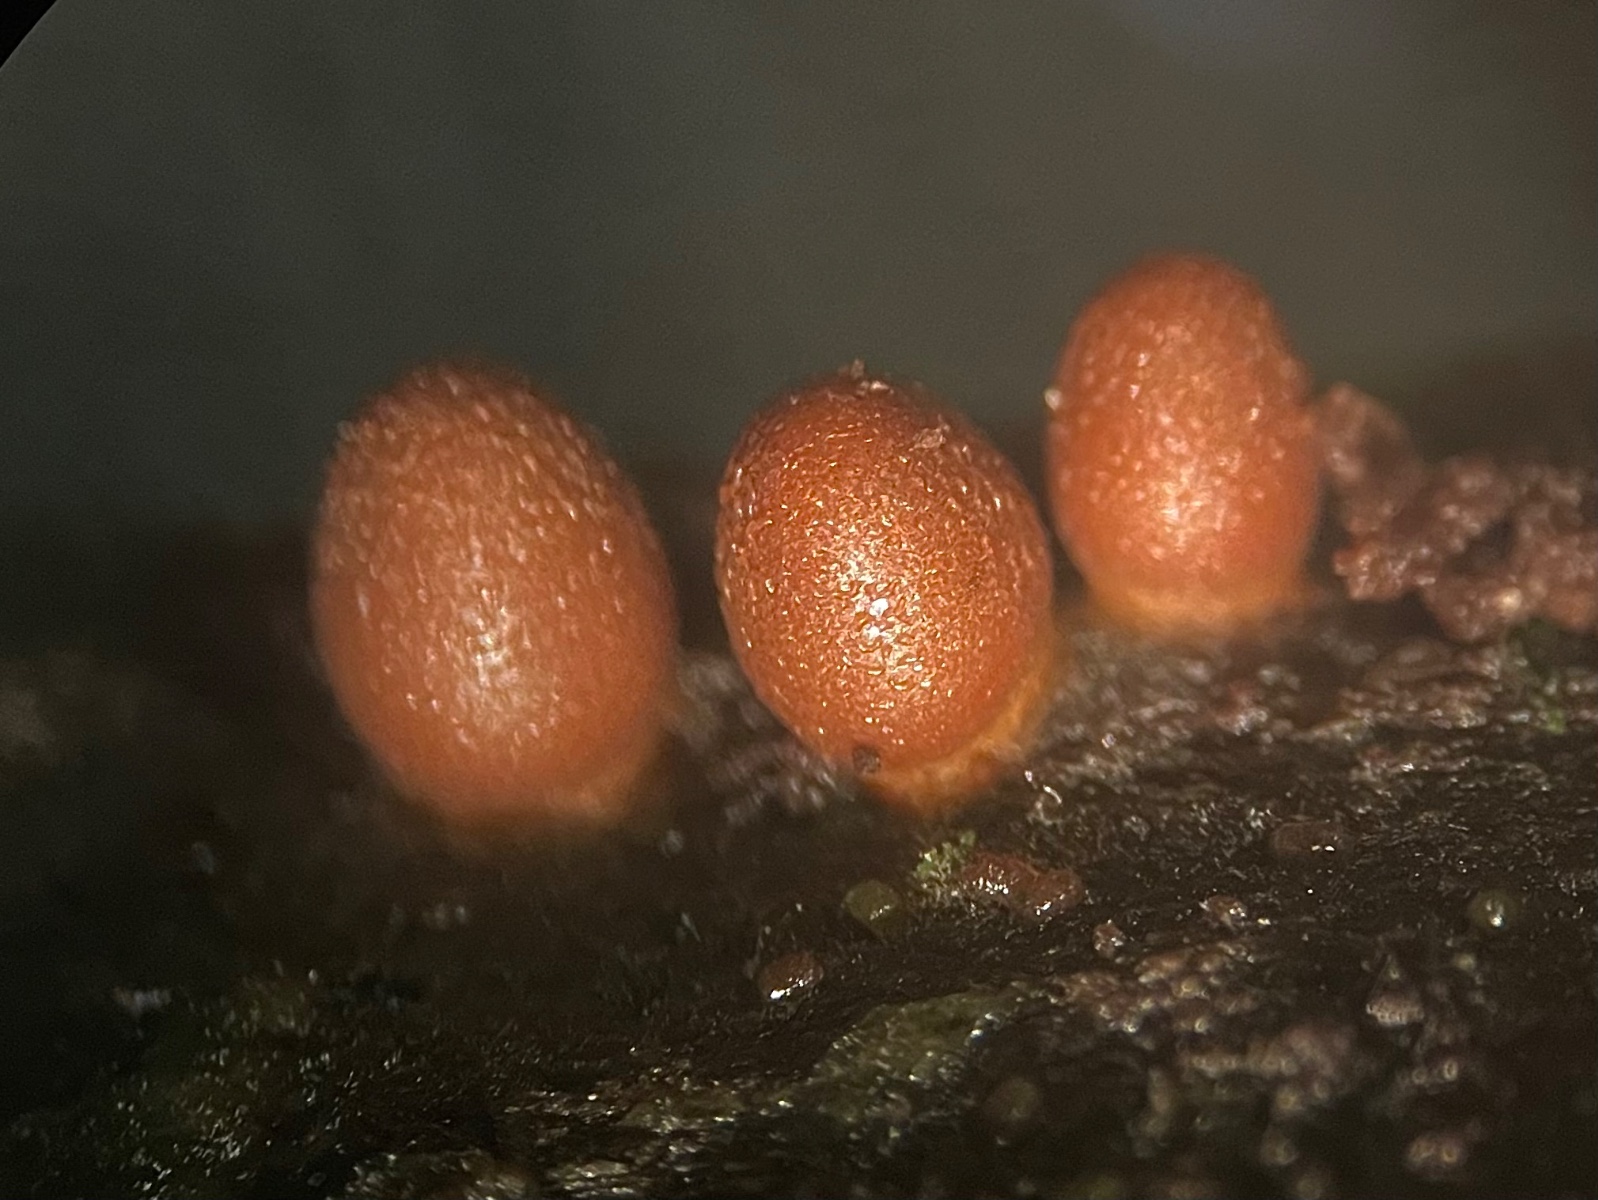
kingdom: Protozoa
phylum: Mycetozoa
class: Myxomycetes
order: Cribrariales
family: Tubiferaceae
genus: Lycogala
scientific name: Lycogala conicum
